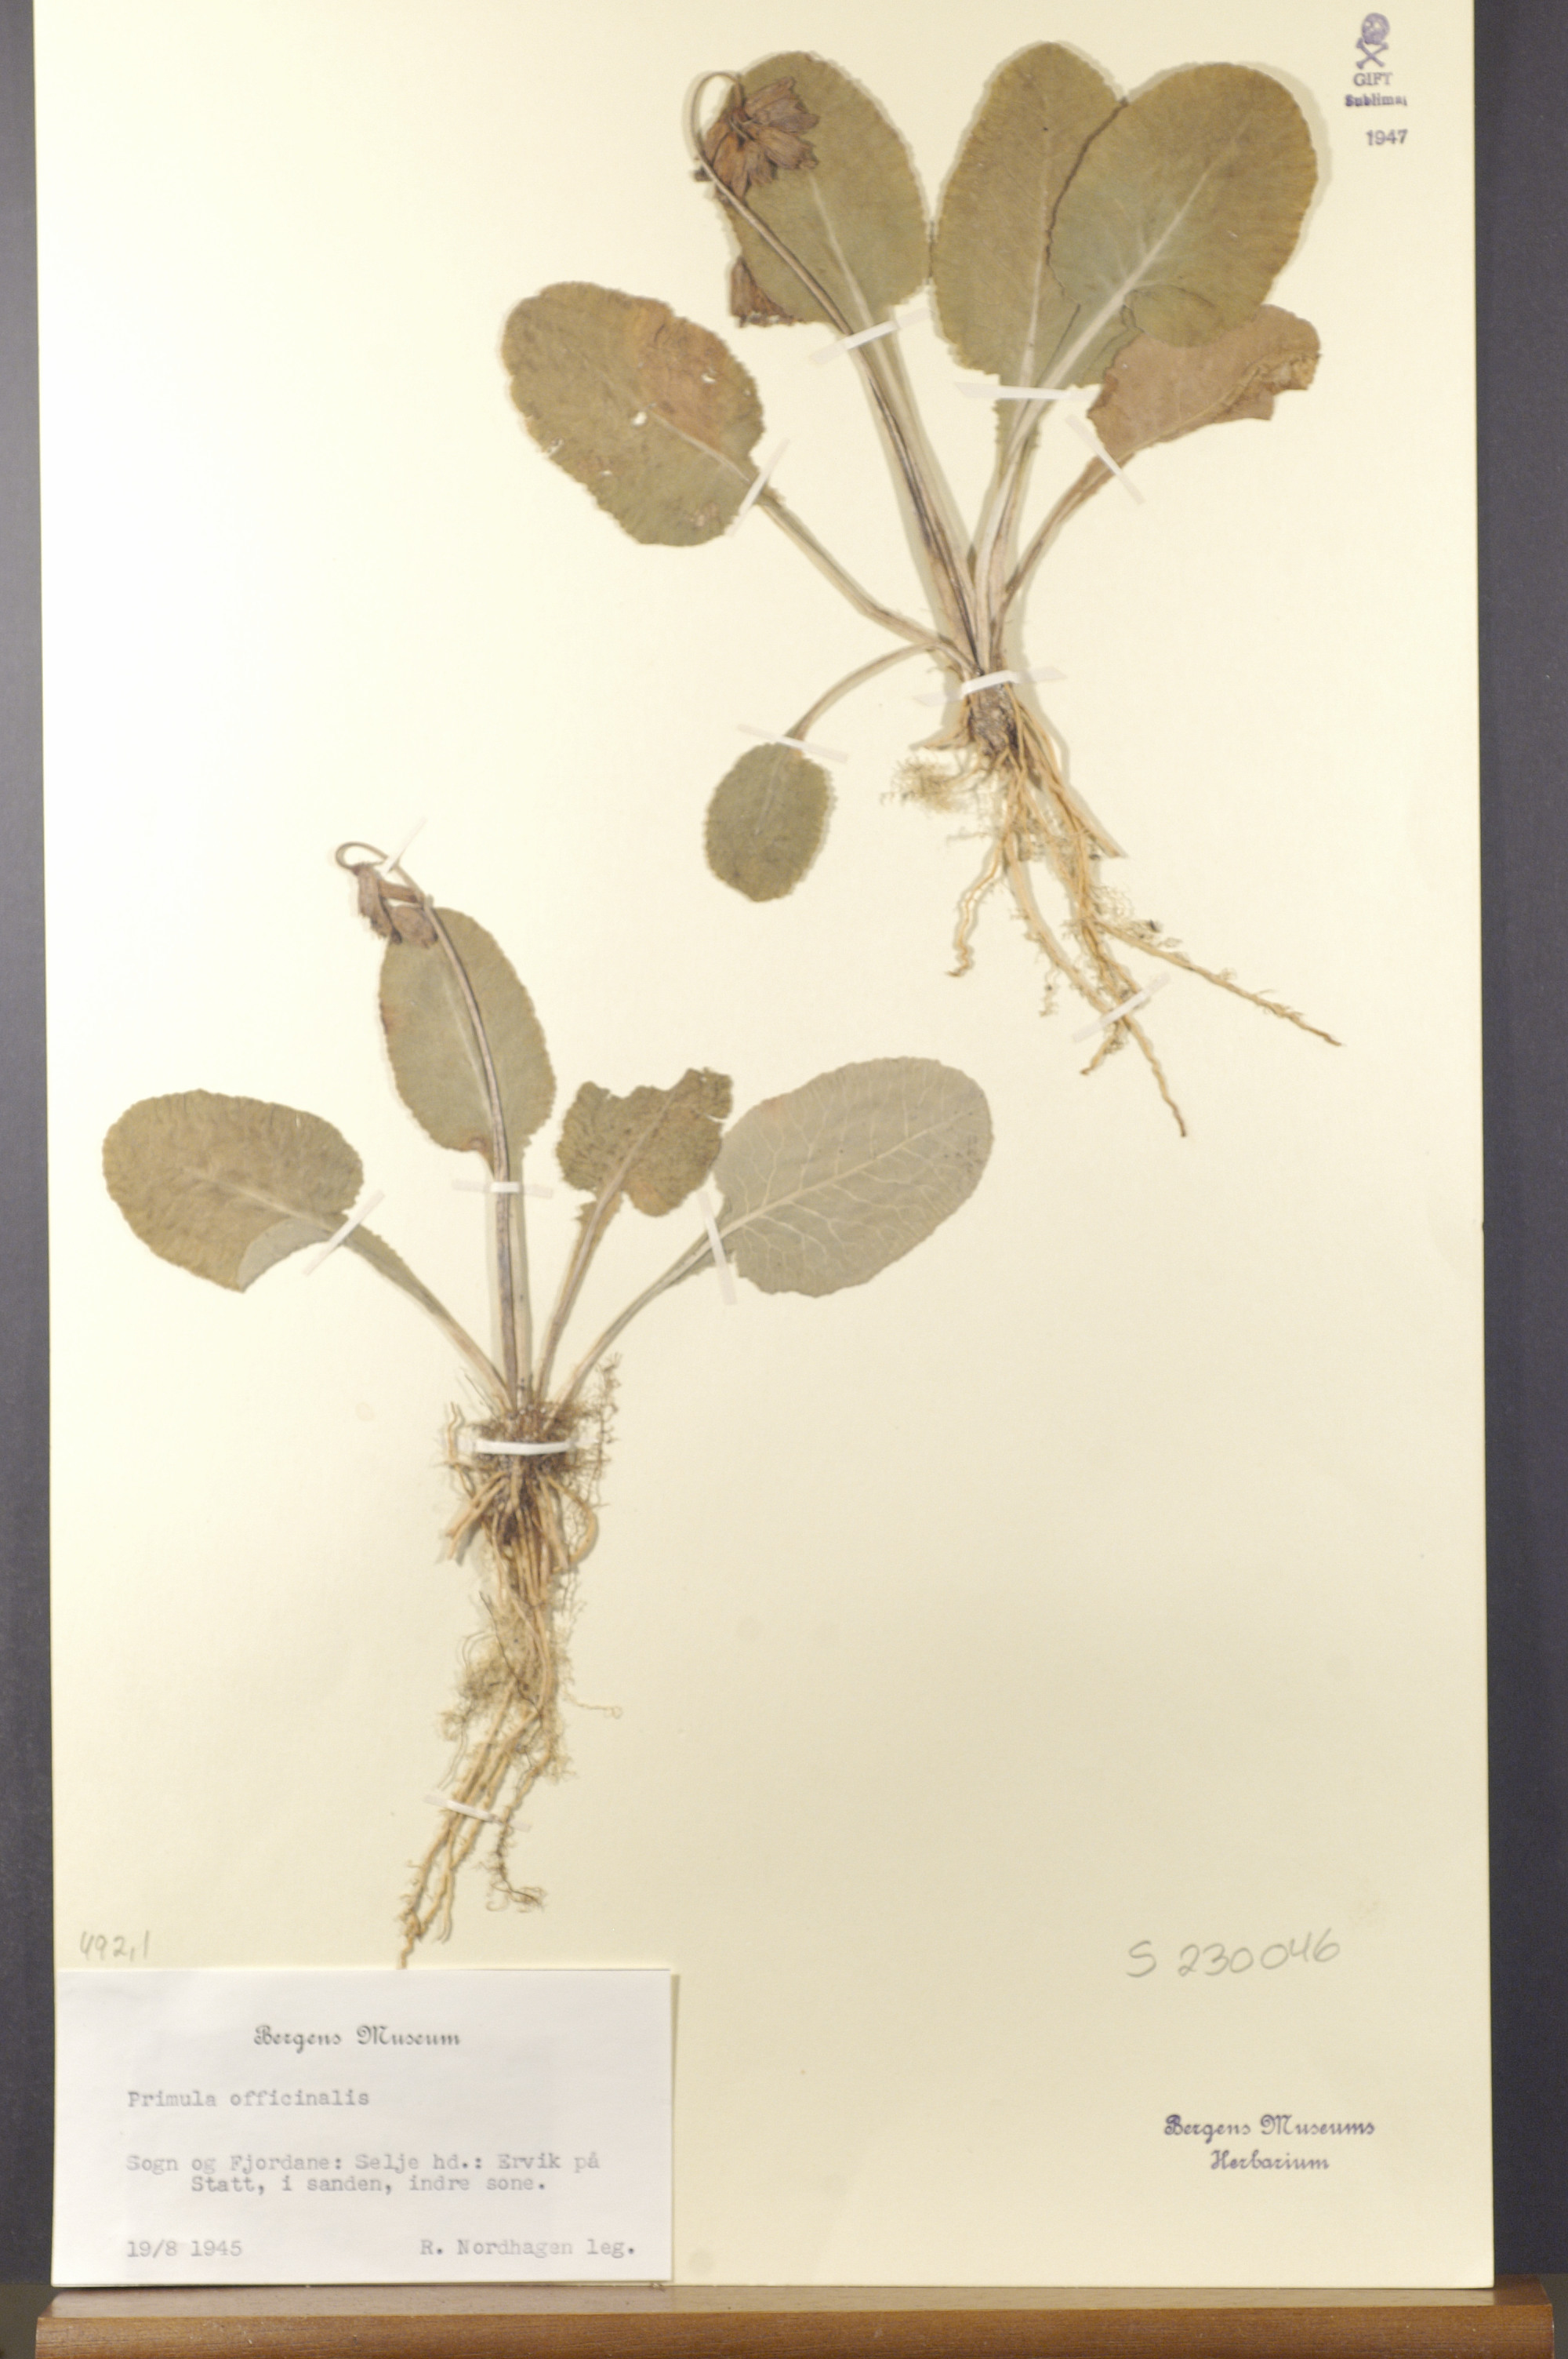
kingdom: Plantae
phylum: Tracheophyta
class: Magnoliopsida
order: Ericales
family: Primulaceae
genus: Primula
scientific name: Primula veris
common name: Cowslip
